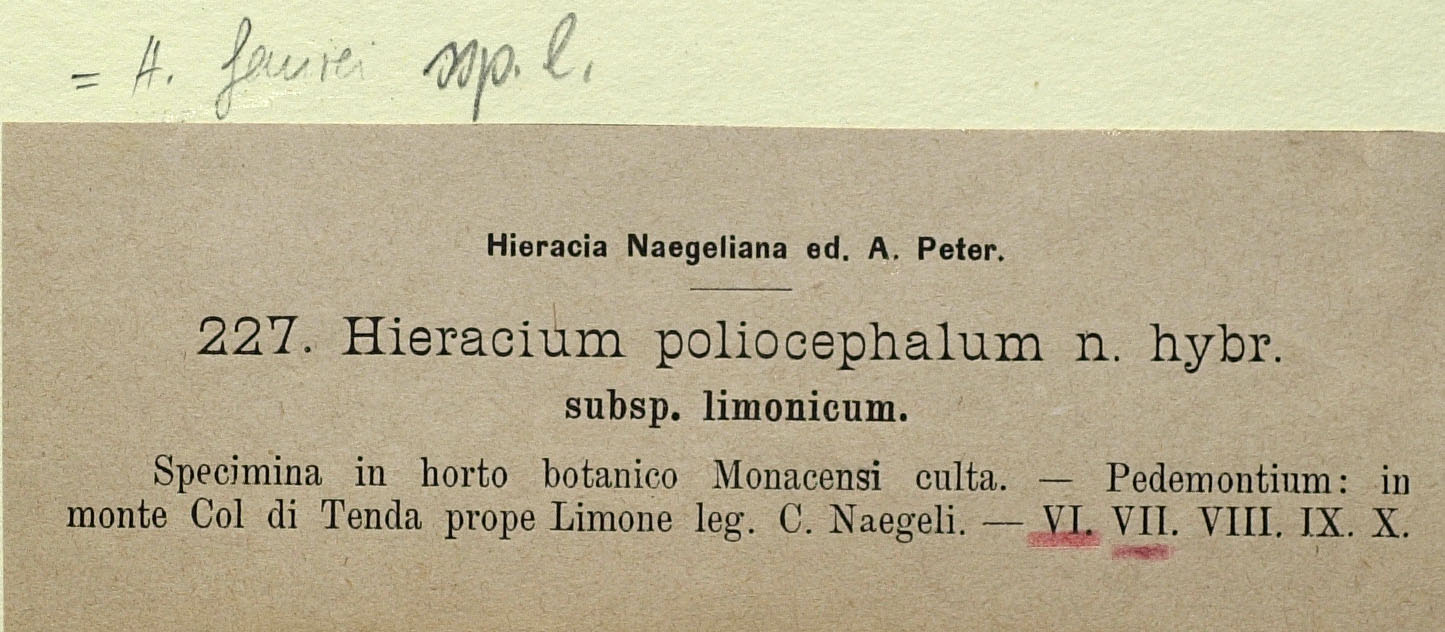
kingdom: Plantae
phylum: Tracheophyta
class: Magnoliopsida
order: Asterales
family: Asteraceae
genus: Pilosella
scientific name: Pilosella faurei
